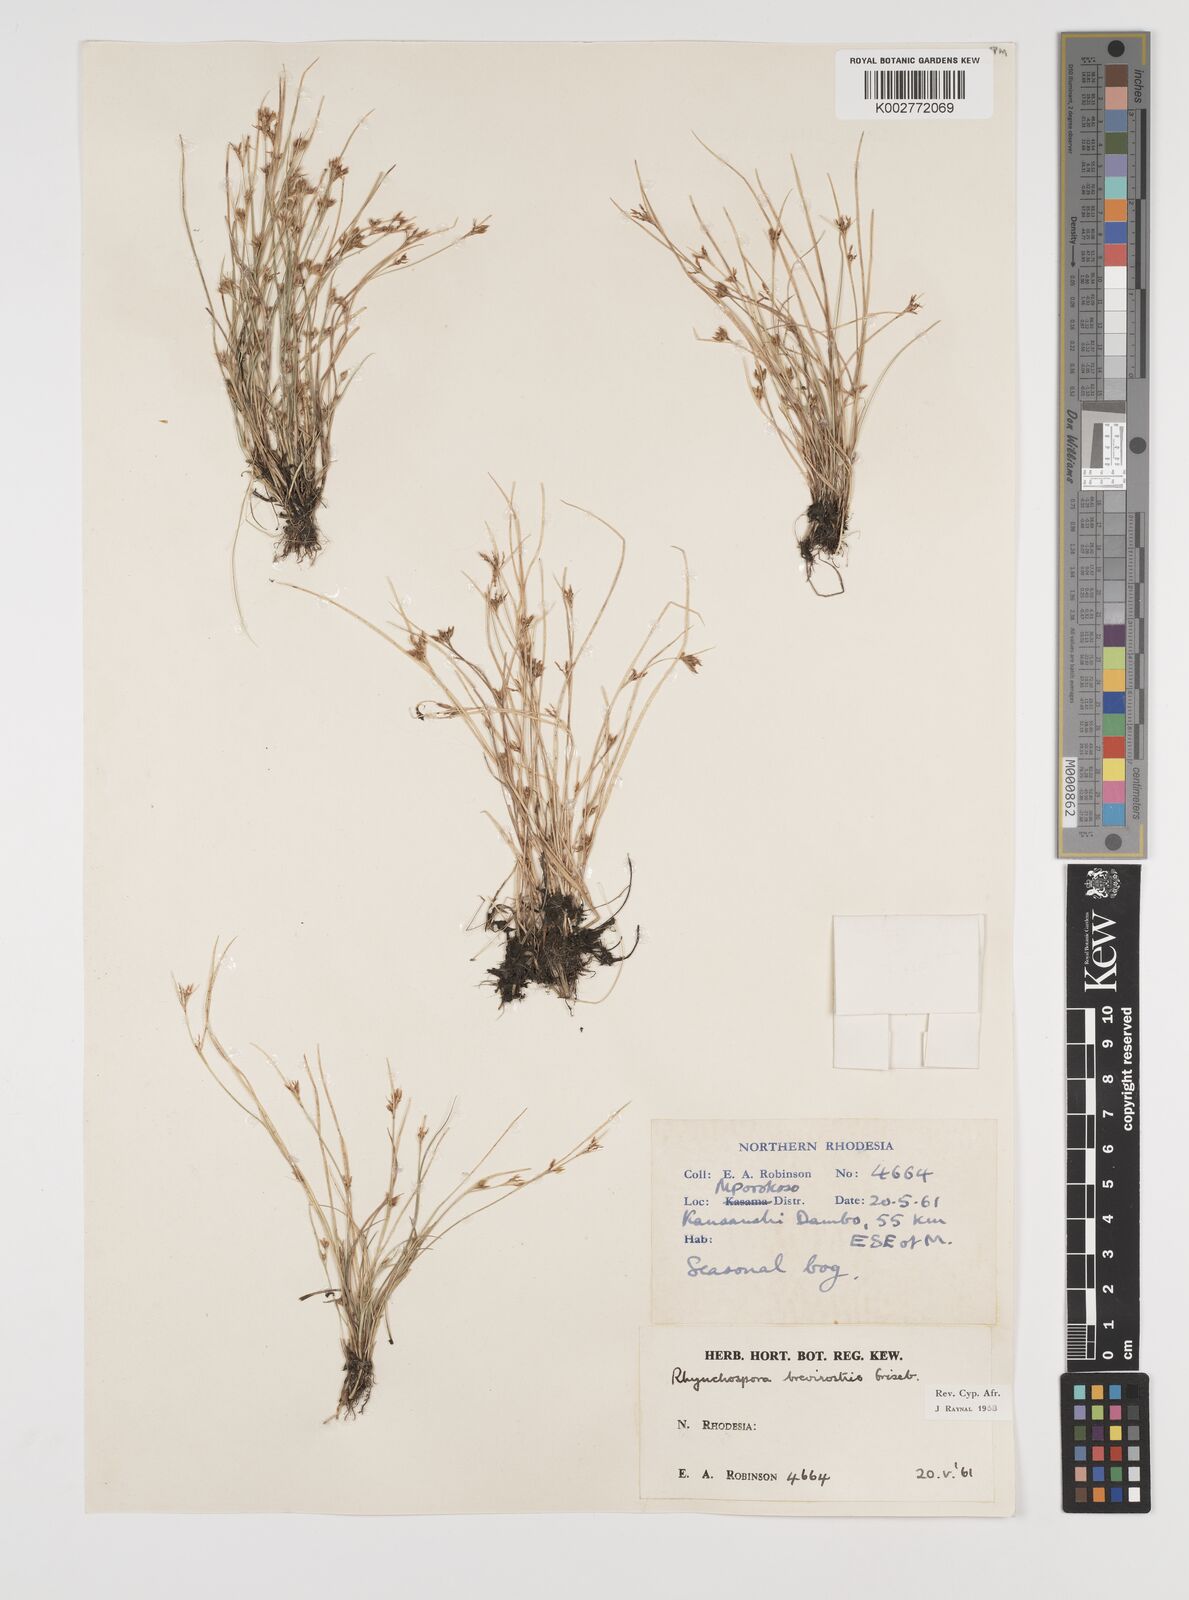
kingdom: Plantae
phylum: Tracheophyta
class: Liliopsida
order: Poales
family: Cyperaceae
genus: Rhynchospora
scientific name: Rhynchospora brevirostris
